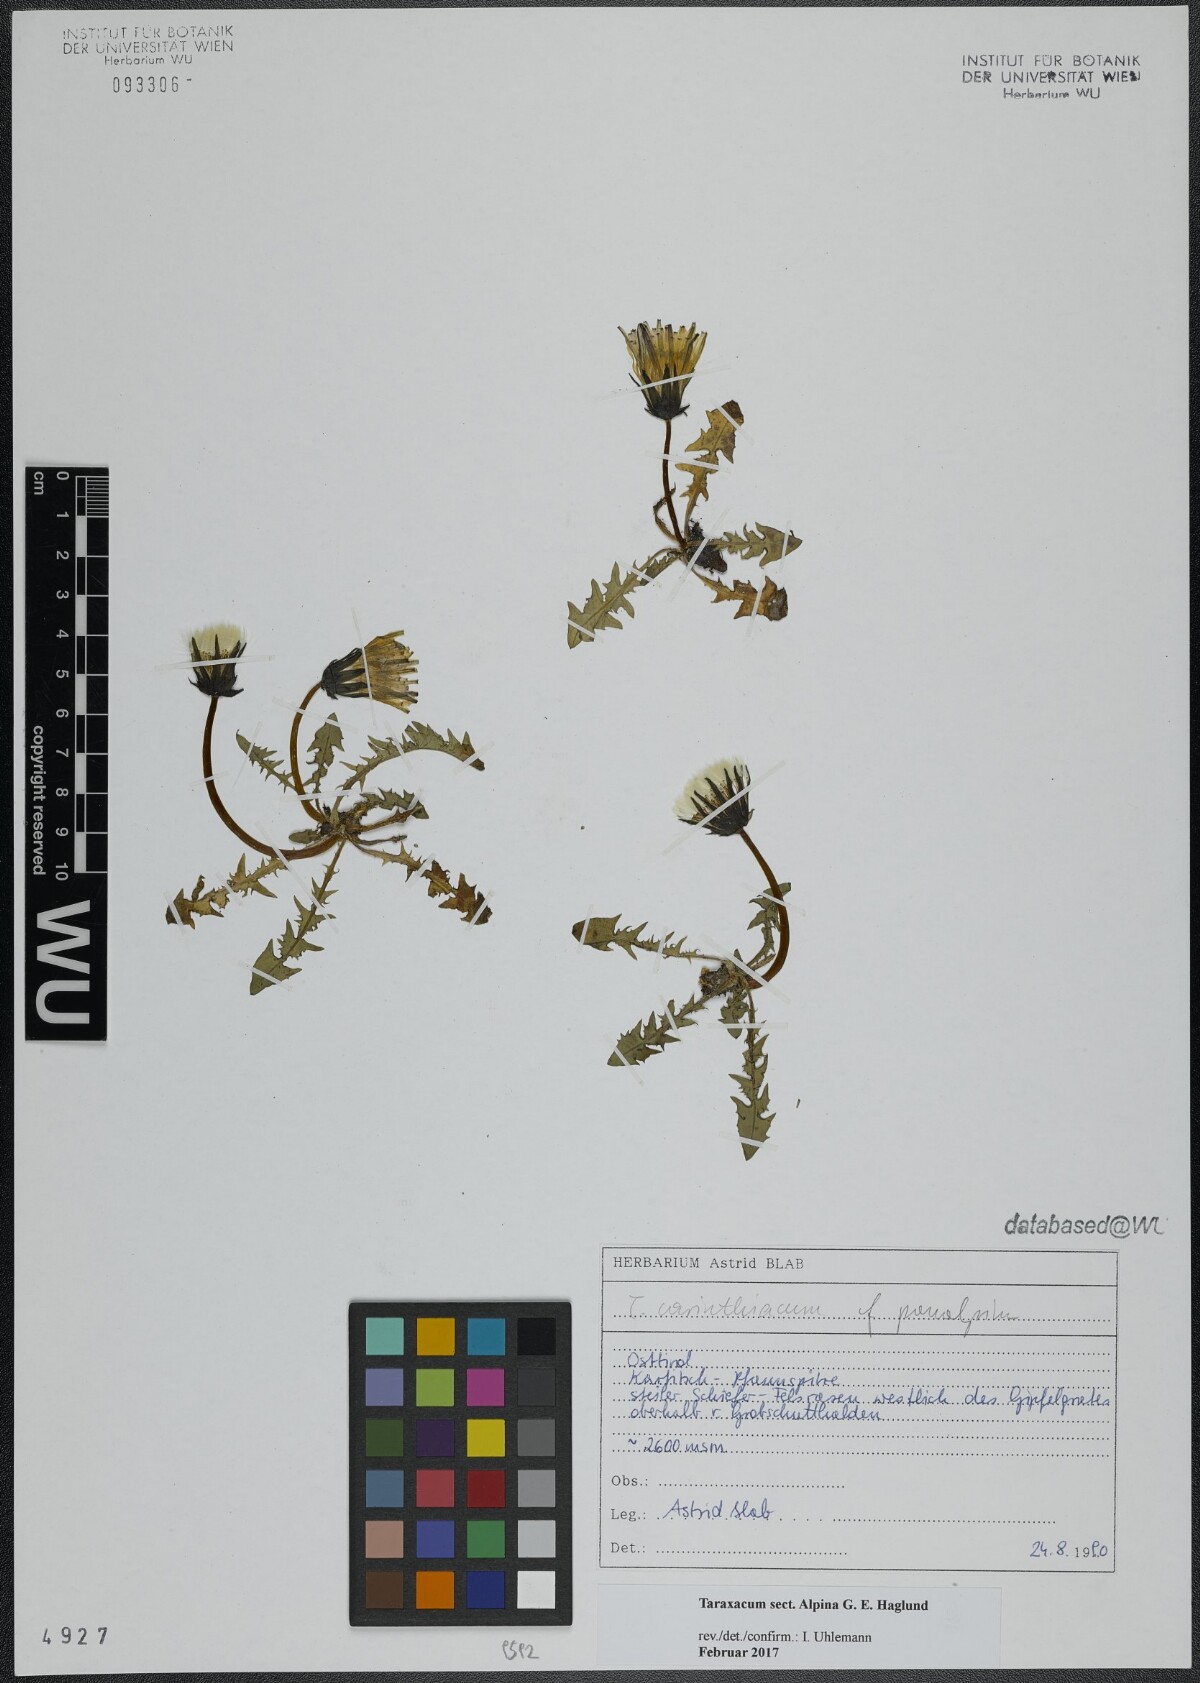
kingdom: Plantae
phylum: Tracheophyta
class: Magnoliopsida
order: Asterales
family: Asteraceae
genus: Taraxacum
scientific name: Taraxacum
